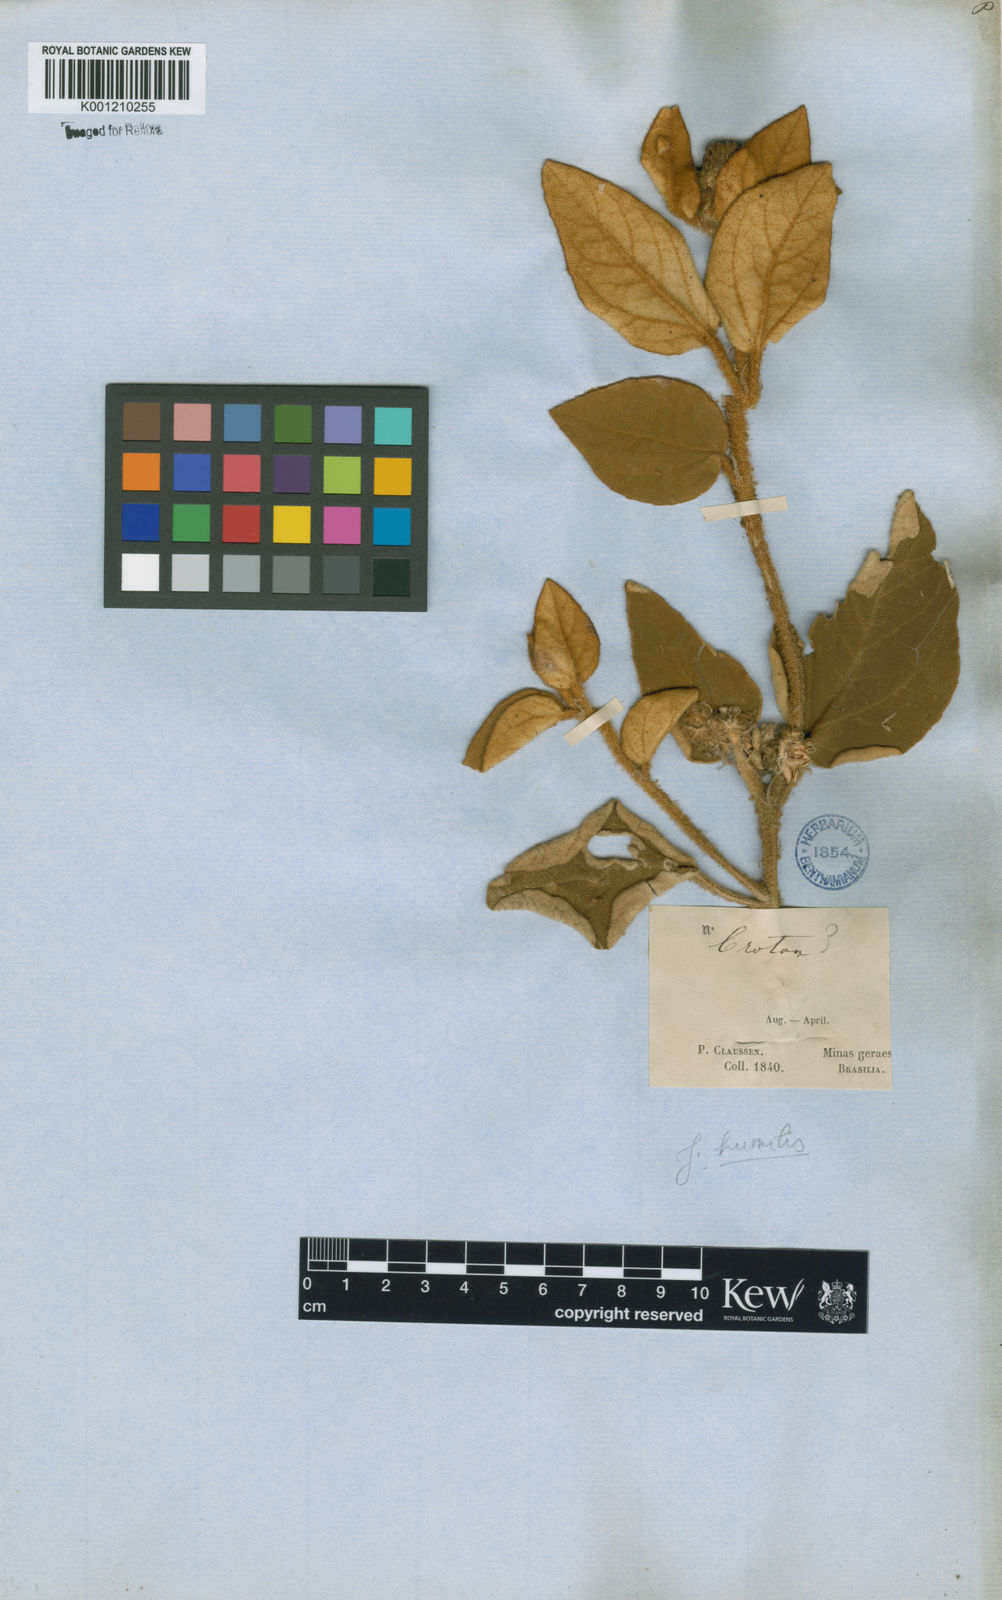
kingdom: Plantae
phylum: Tracheophyta
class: Magnoliopsida
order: Malpighiales
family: Euphorbiaceae
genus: Croton
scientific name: Croton
